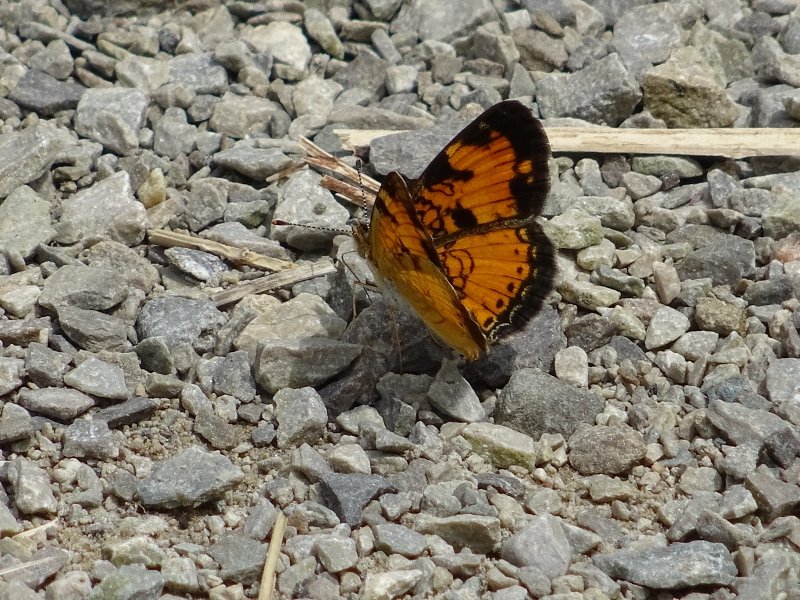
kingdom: Animalia
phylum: Arthropoda
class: Insecta
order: Lepidoptera
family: Nymphalidae
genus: Phyciodes
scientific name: Phyciodes tharos
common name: Northern Crescent
